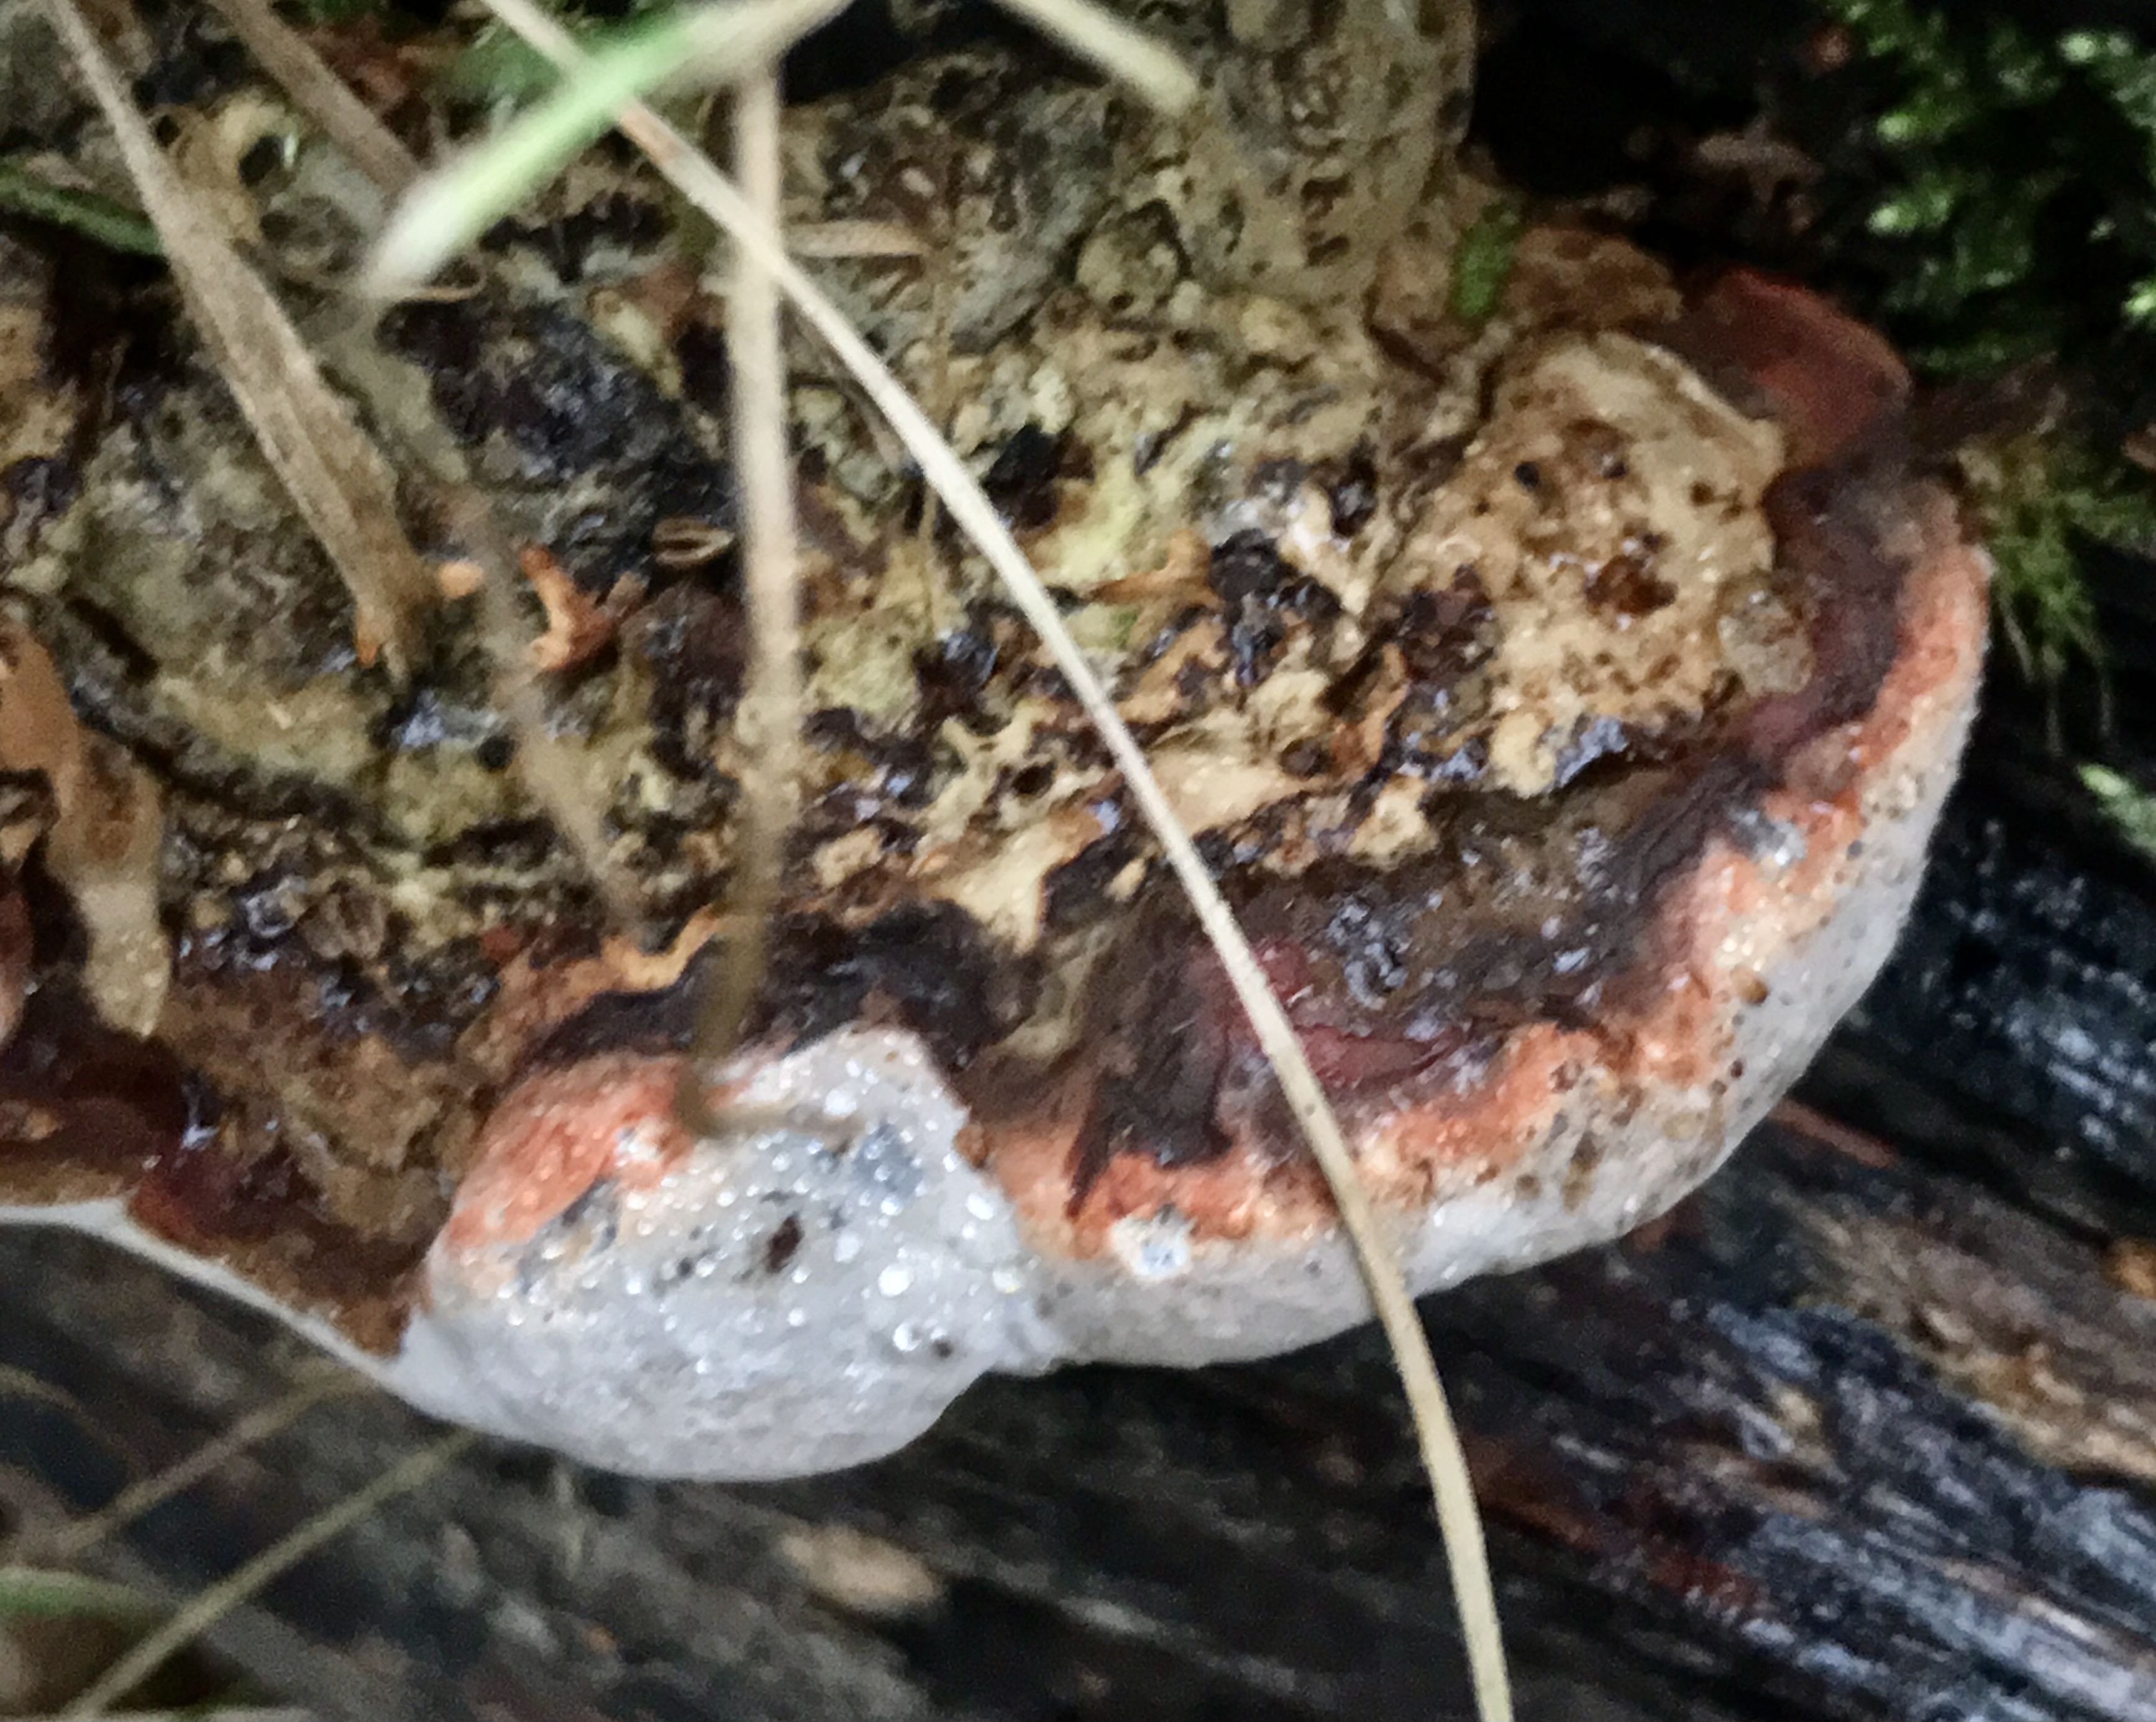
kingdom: Fungi
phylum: Basidiomycota
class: Agaricomycetes
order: Polyporales
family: Fomitopsidaceae
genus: Fomitopsis
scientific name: Fomitopsis pinicola
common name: randbæltet hovporesvamp
